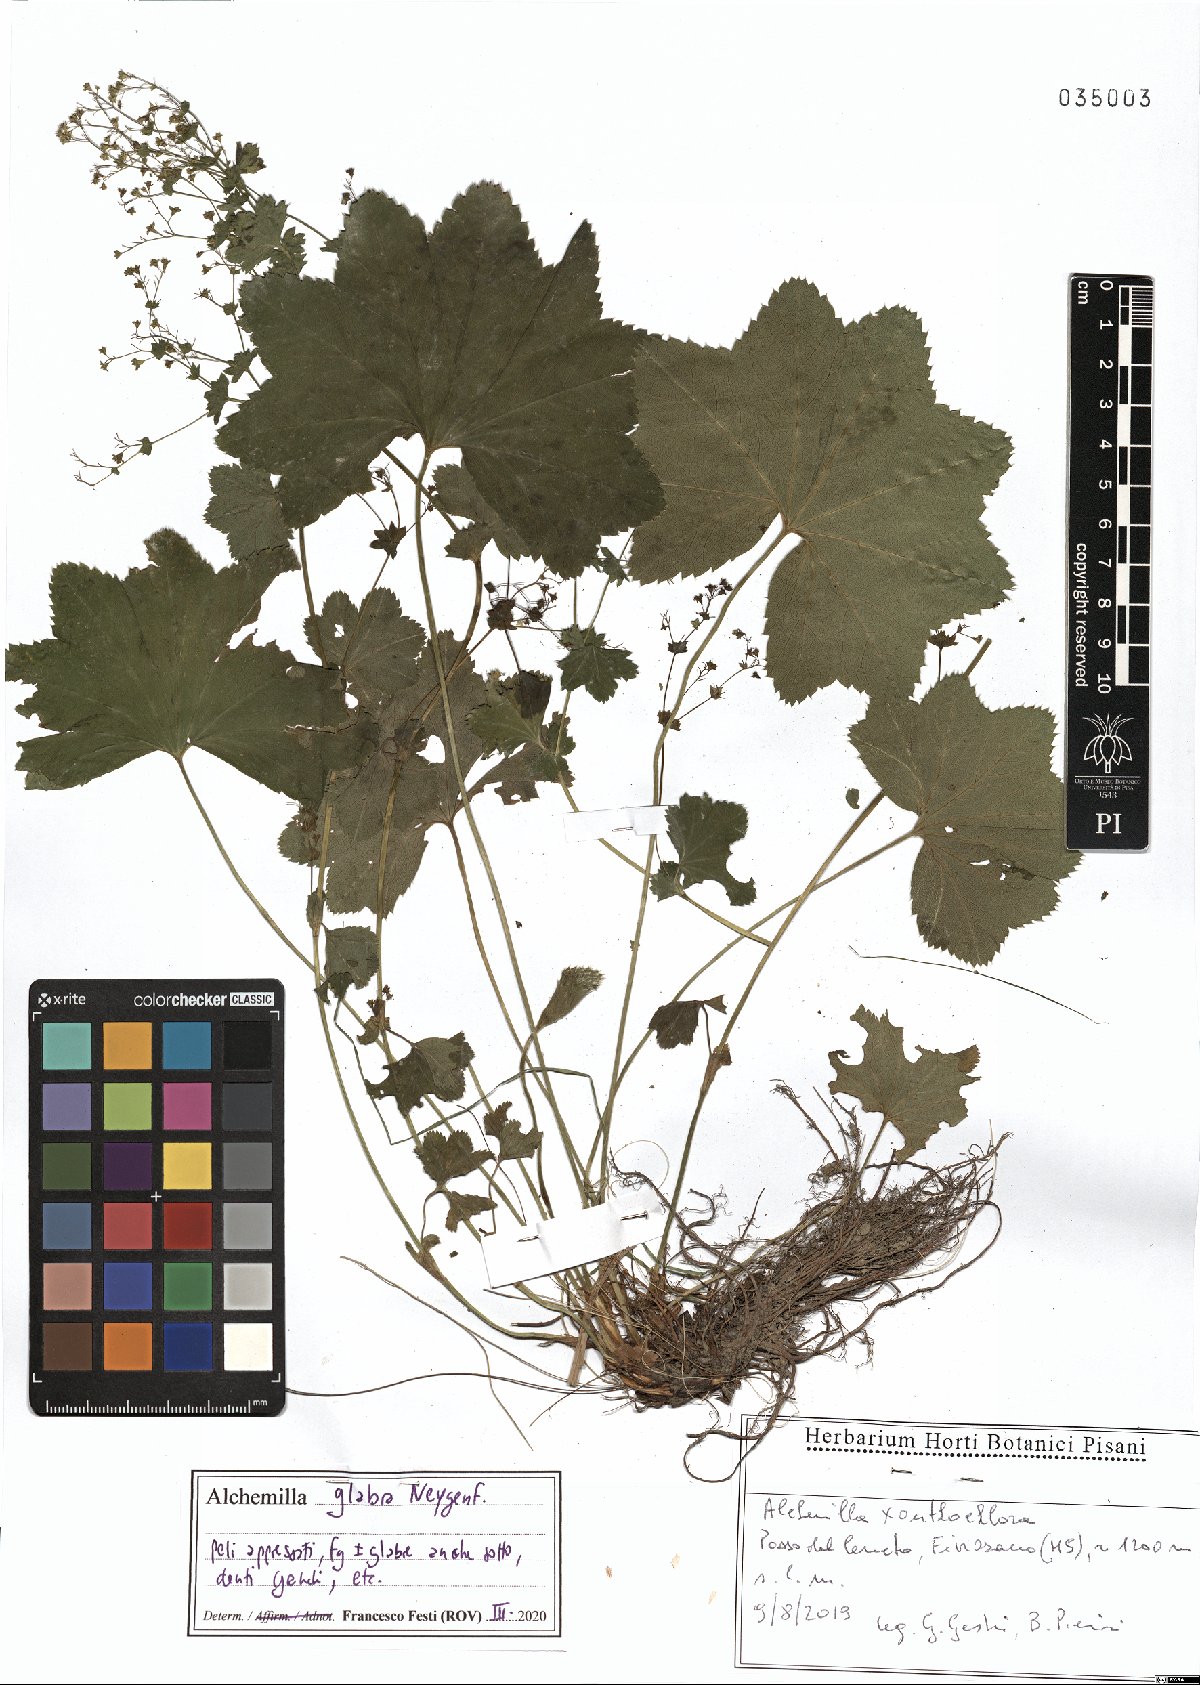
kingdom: Plantae
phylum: Tracheophyta
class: Magnoliopsida
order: Rosales
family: Rosaceae
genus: Alchemilla
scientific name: Alchemilla glabra
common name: Smooth lady's-mantle
